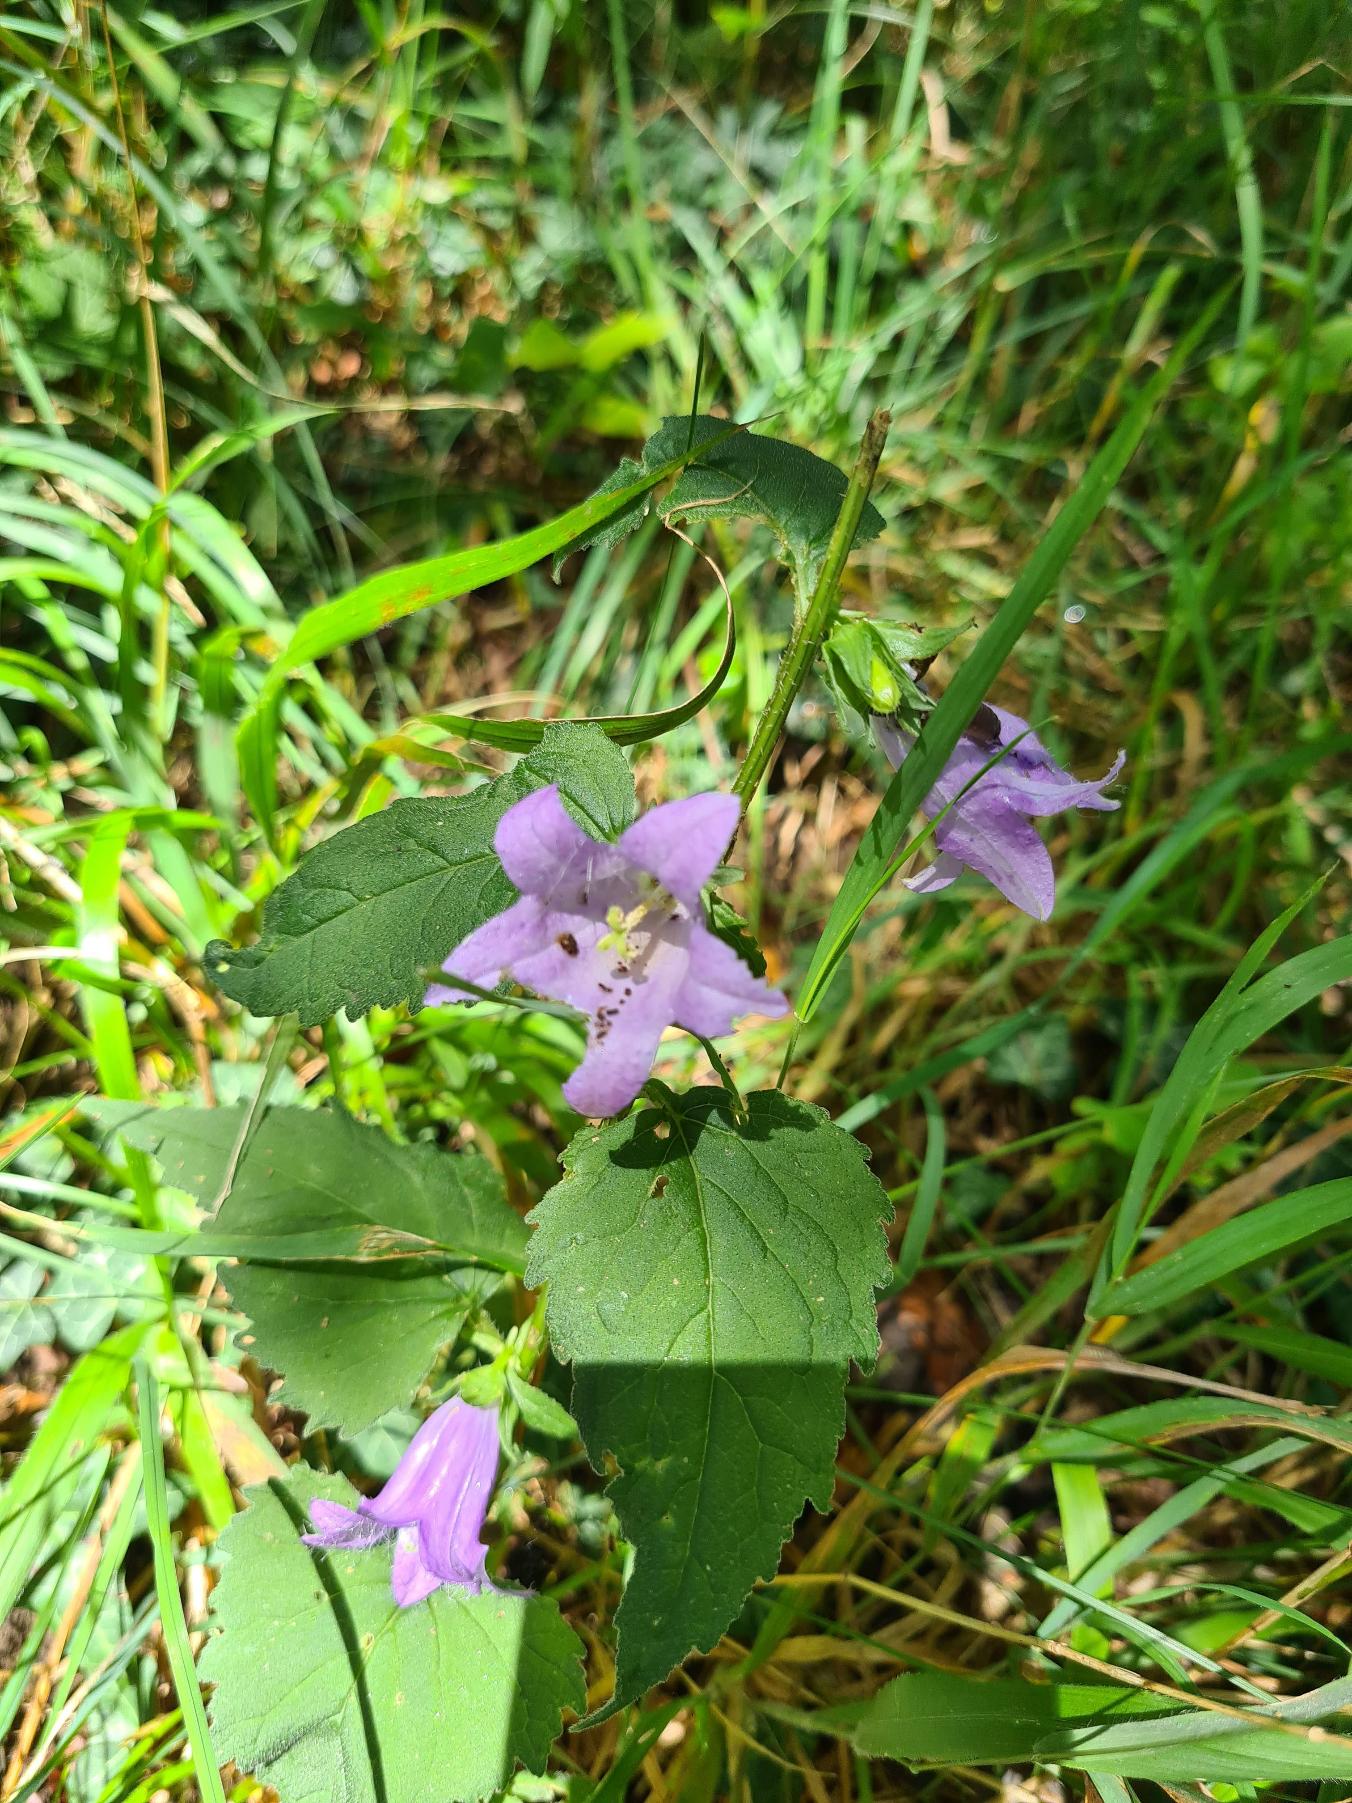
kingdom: Plantae
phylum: Tracheophyta
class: Magnoliopsida
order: Asterales
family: Campanulaceae
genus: Campanula
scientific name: Campanula trachelium
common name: Nælde-klokke
